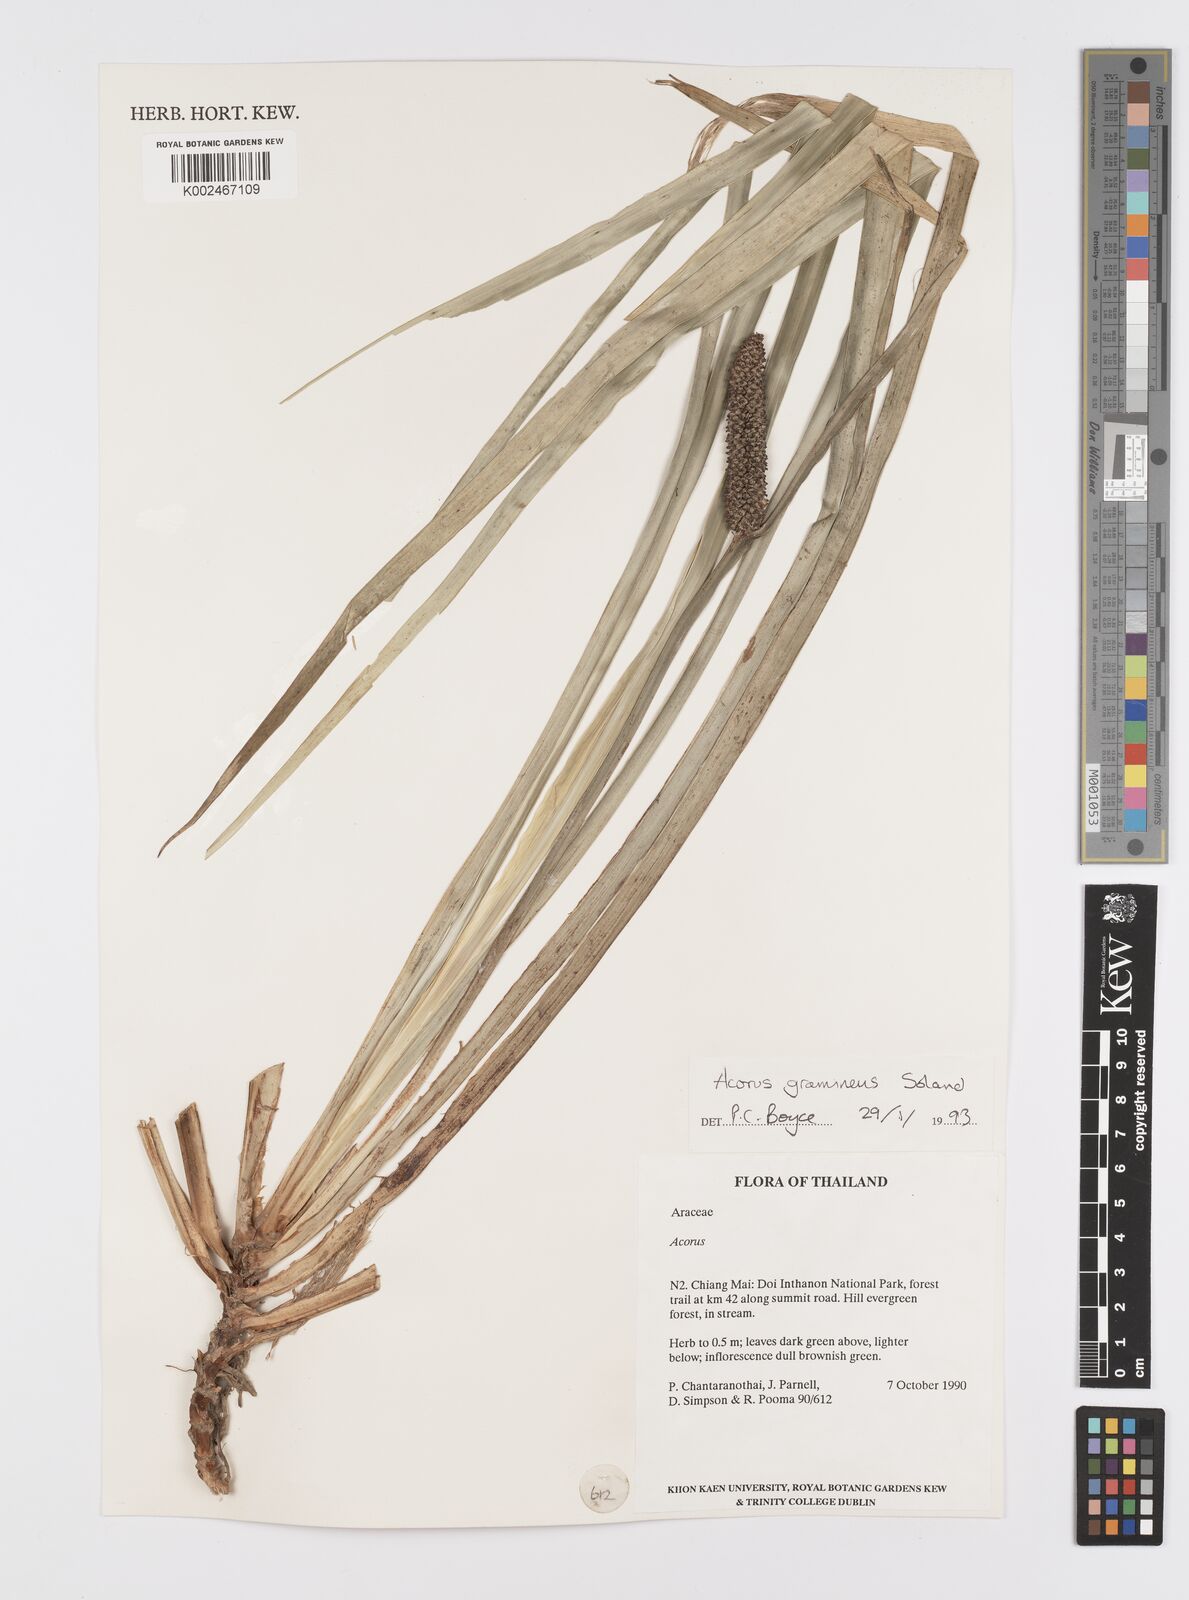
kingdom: Plantae
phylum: Tracheophyta
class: Liliopsida
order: Acorales
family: Acoraceae
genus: Acorus
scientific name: Acorus gramineus
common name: Slender sweet-flag
